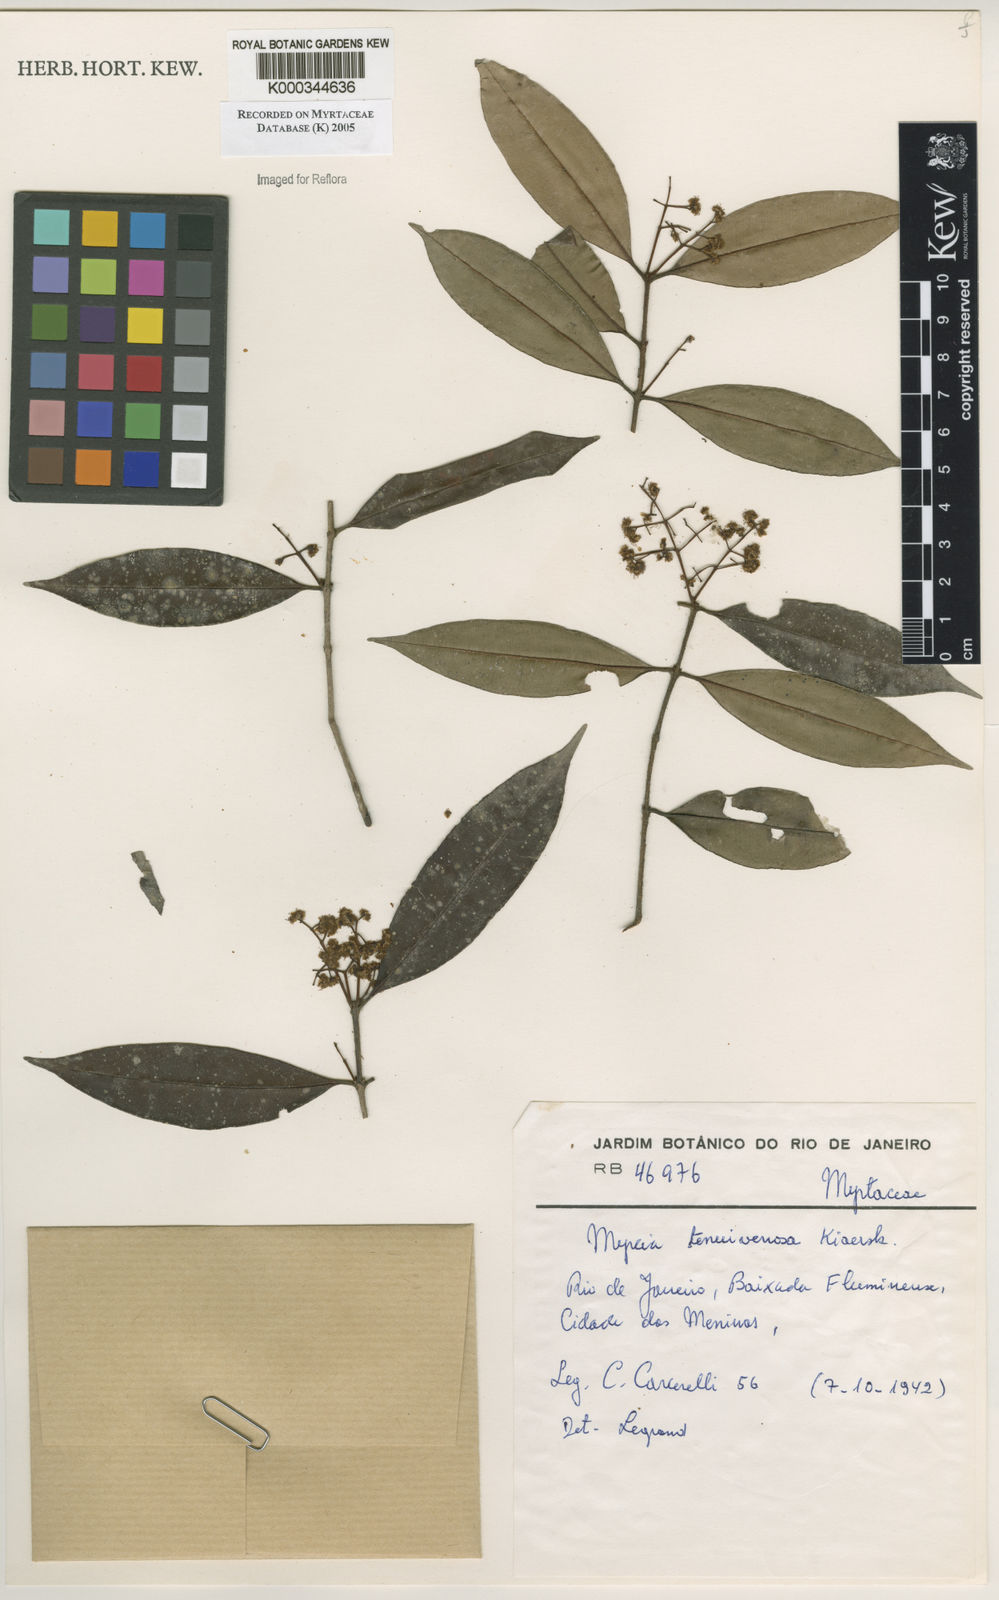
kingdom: Plantae
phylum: Tracheophyta
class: Magnoliopsida
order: Myrtales
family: Myrtaceae
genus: Myrcia
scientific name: Myrcia tenuivenosa
